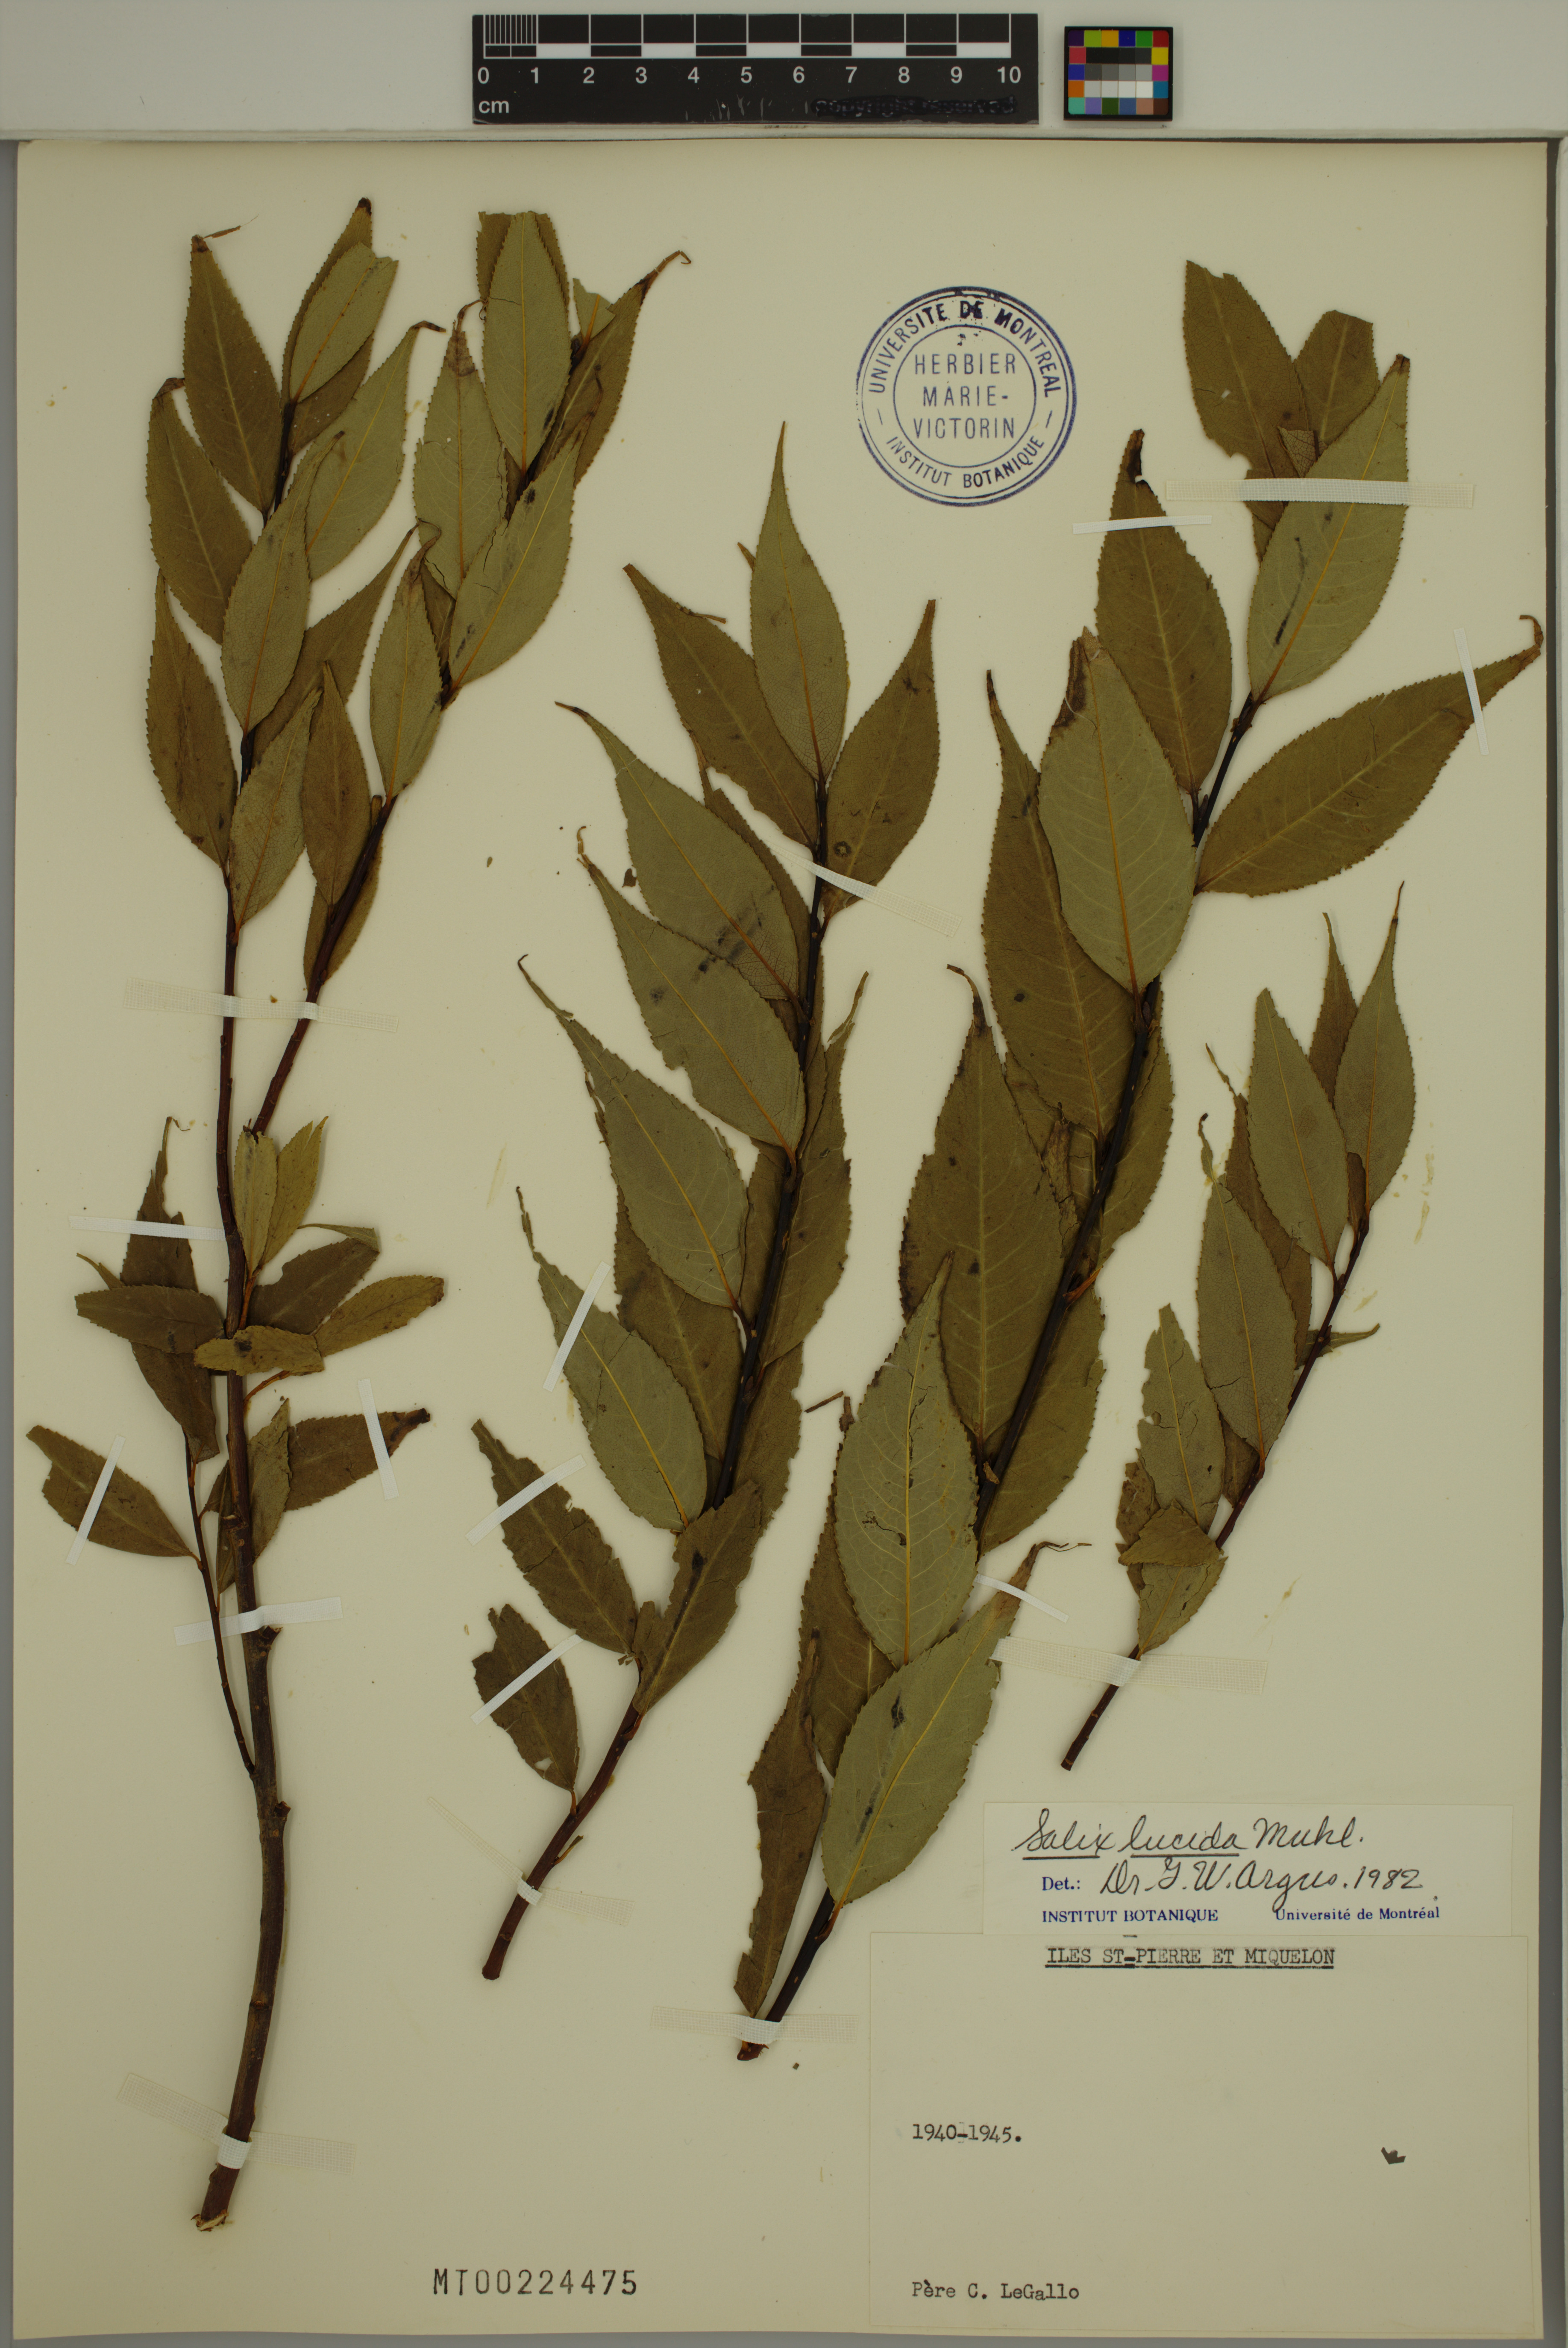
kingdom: Plantae
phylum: Tracheophyta
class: Magnoliopsida
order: Malpighiales
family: Salicaceae
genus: Salix
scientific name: Salix lucida
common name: Shining willow
